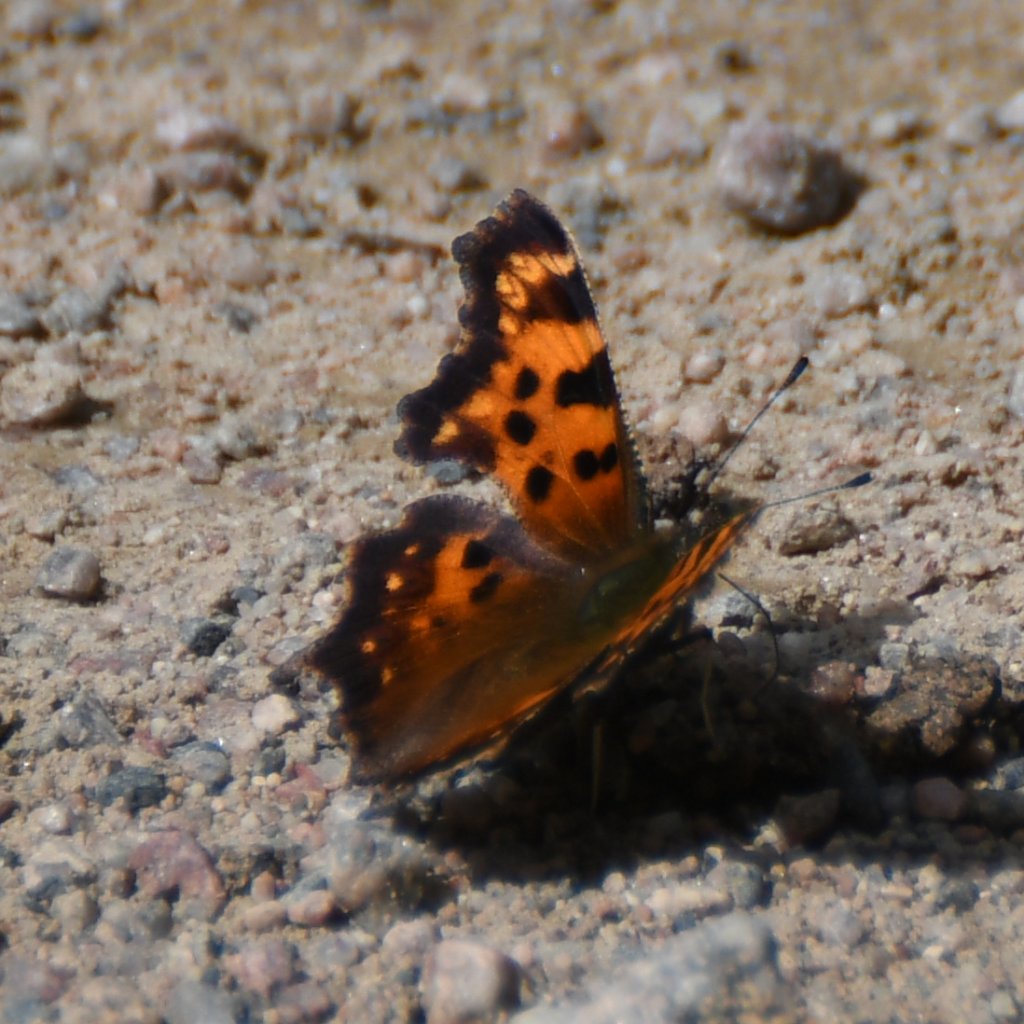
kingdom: Animalia
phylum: Arthropoda
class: Insecta
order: Lepidoptera
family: Nymphalidae
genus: Polygonia
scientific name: Polygonia faunus
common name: Green Comma
